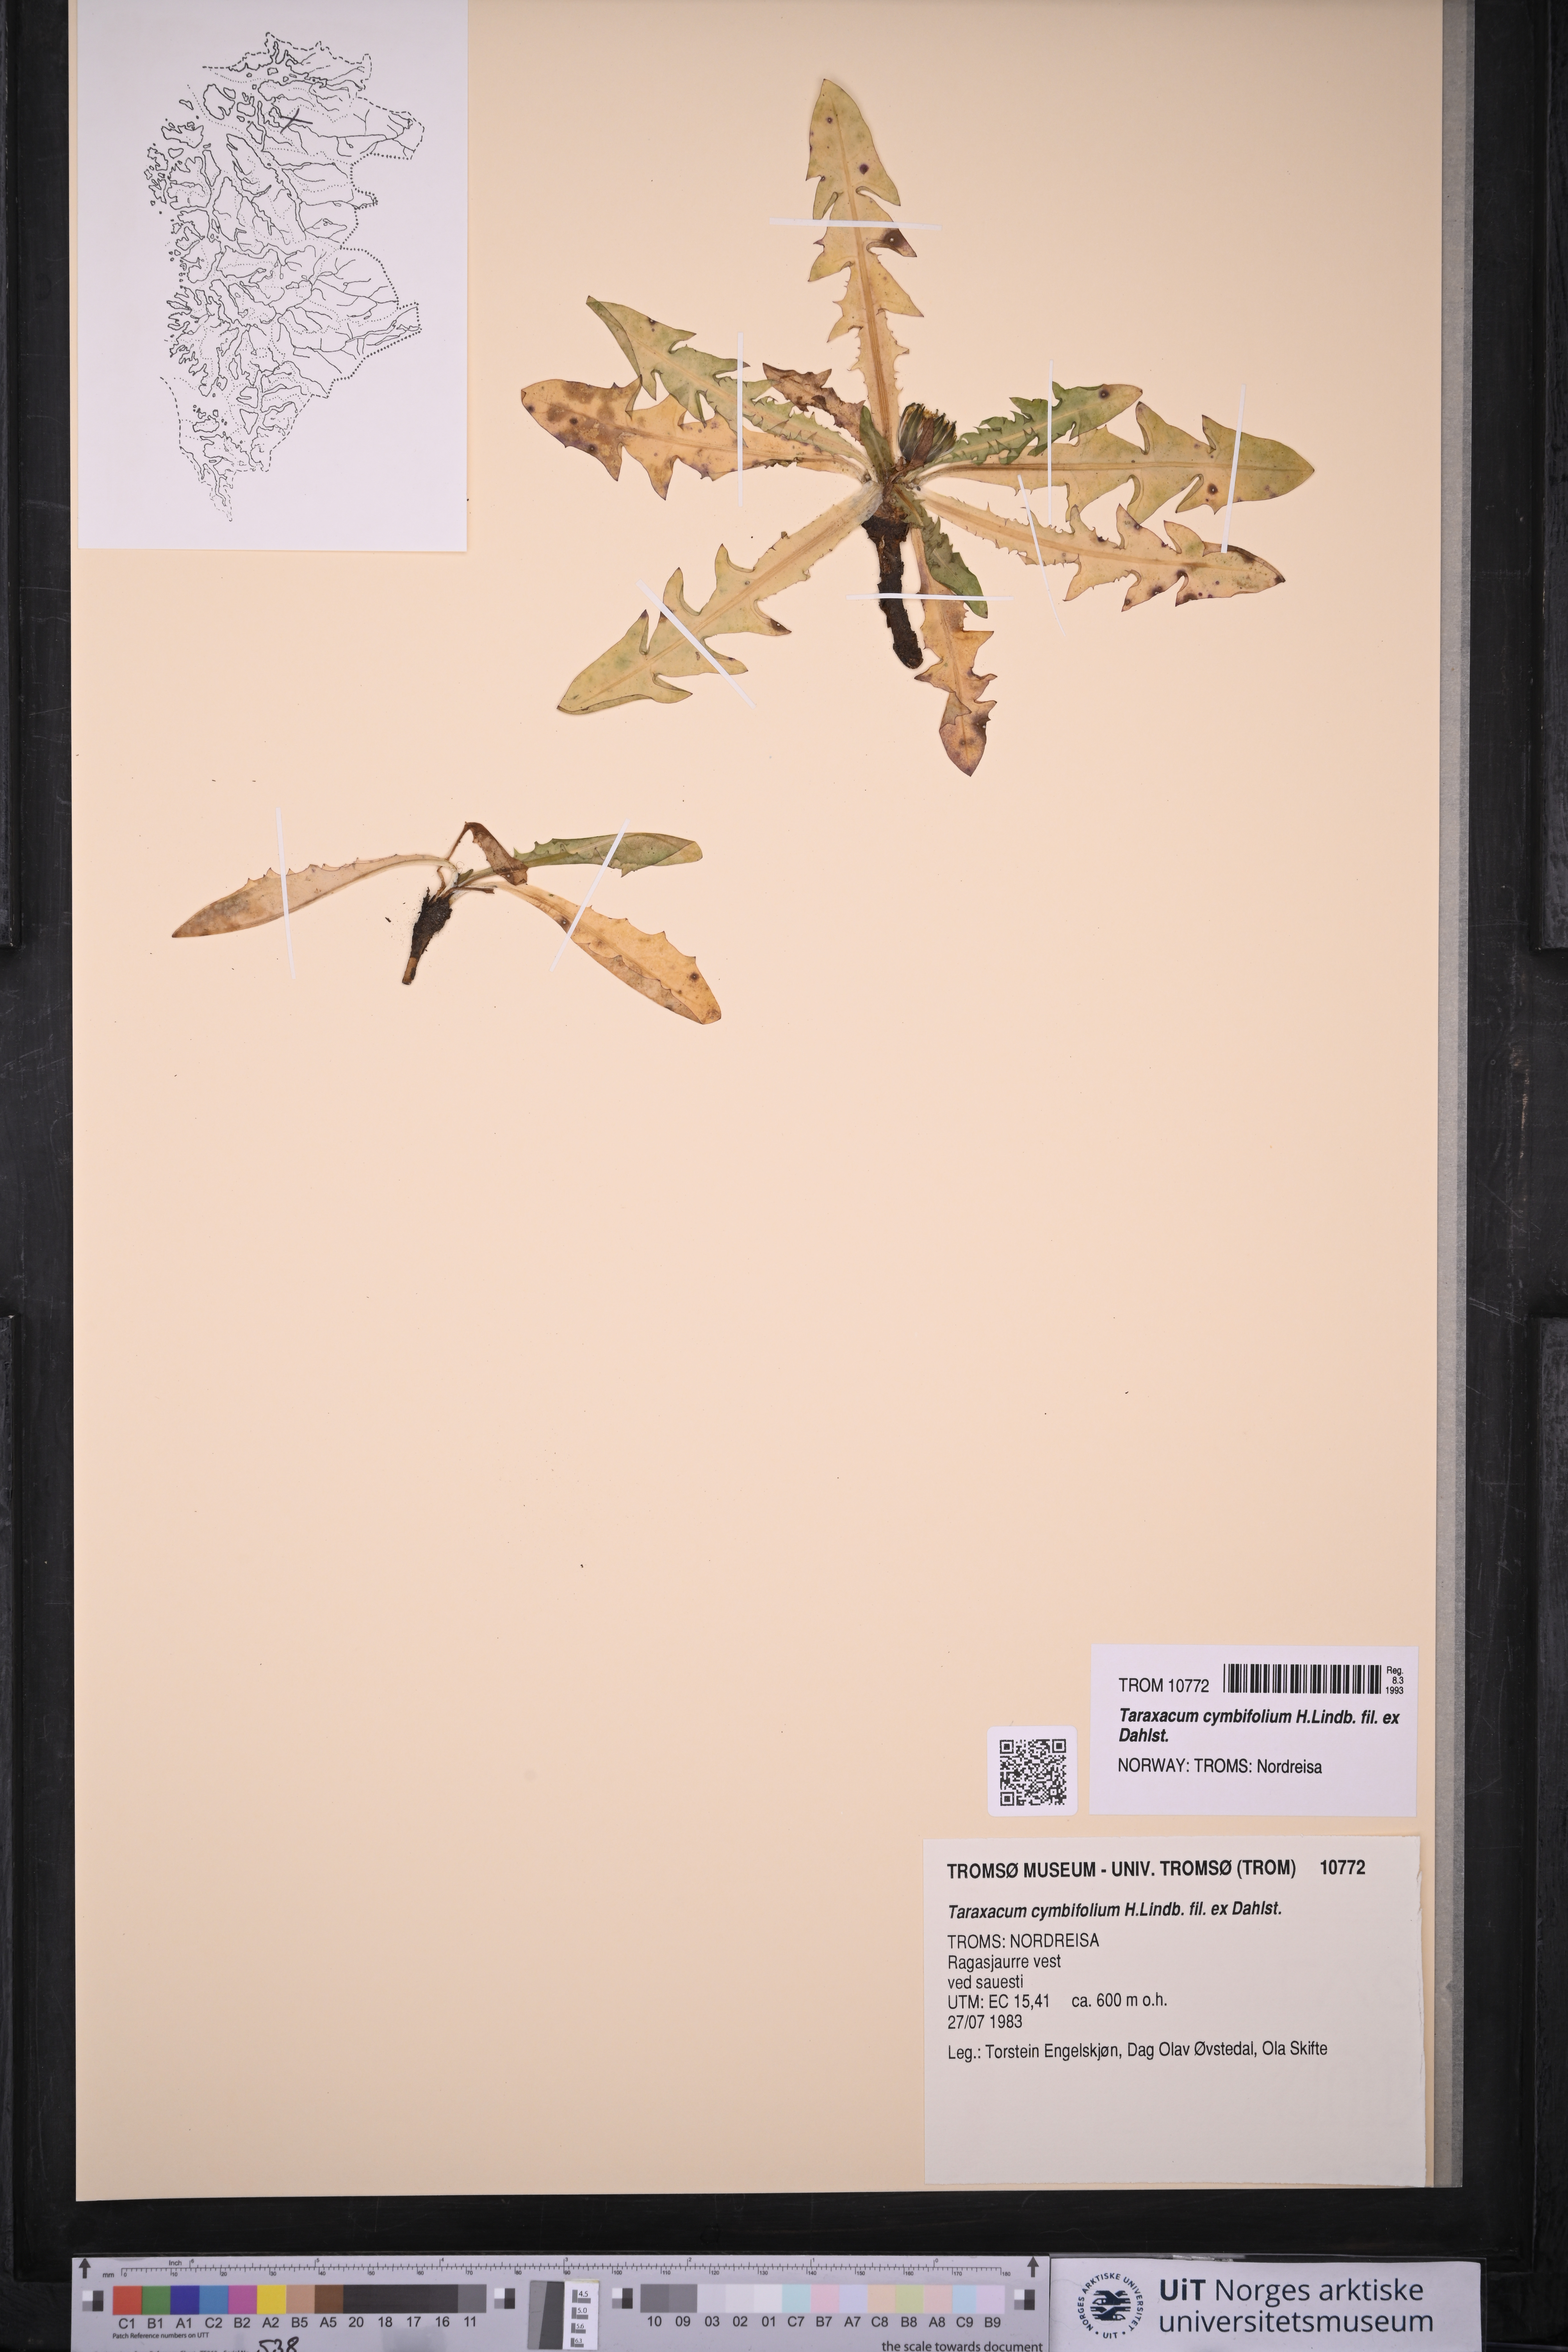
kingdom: Plantae
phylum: Tracheophyta
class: Magnoliopsida
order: Asterales
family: Asteraceae
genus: Taraxacum
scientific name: Taraxacum cymbifolium
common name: Ben lawes dandelion
